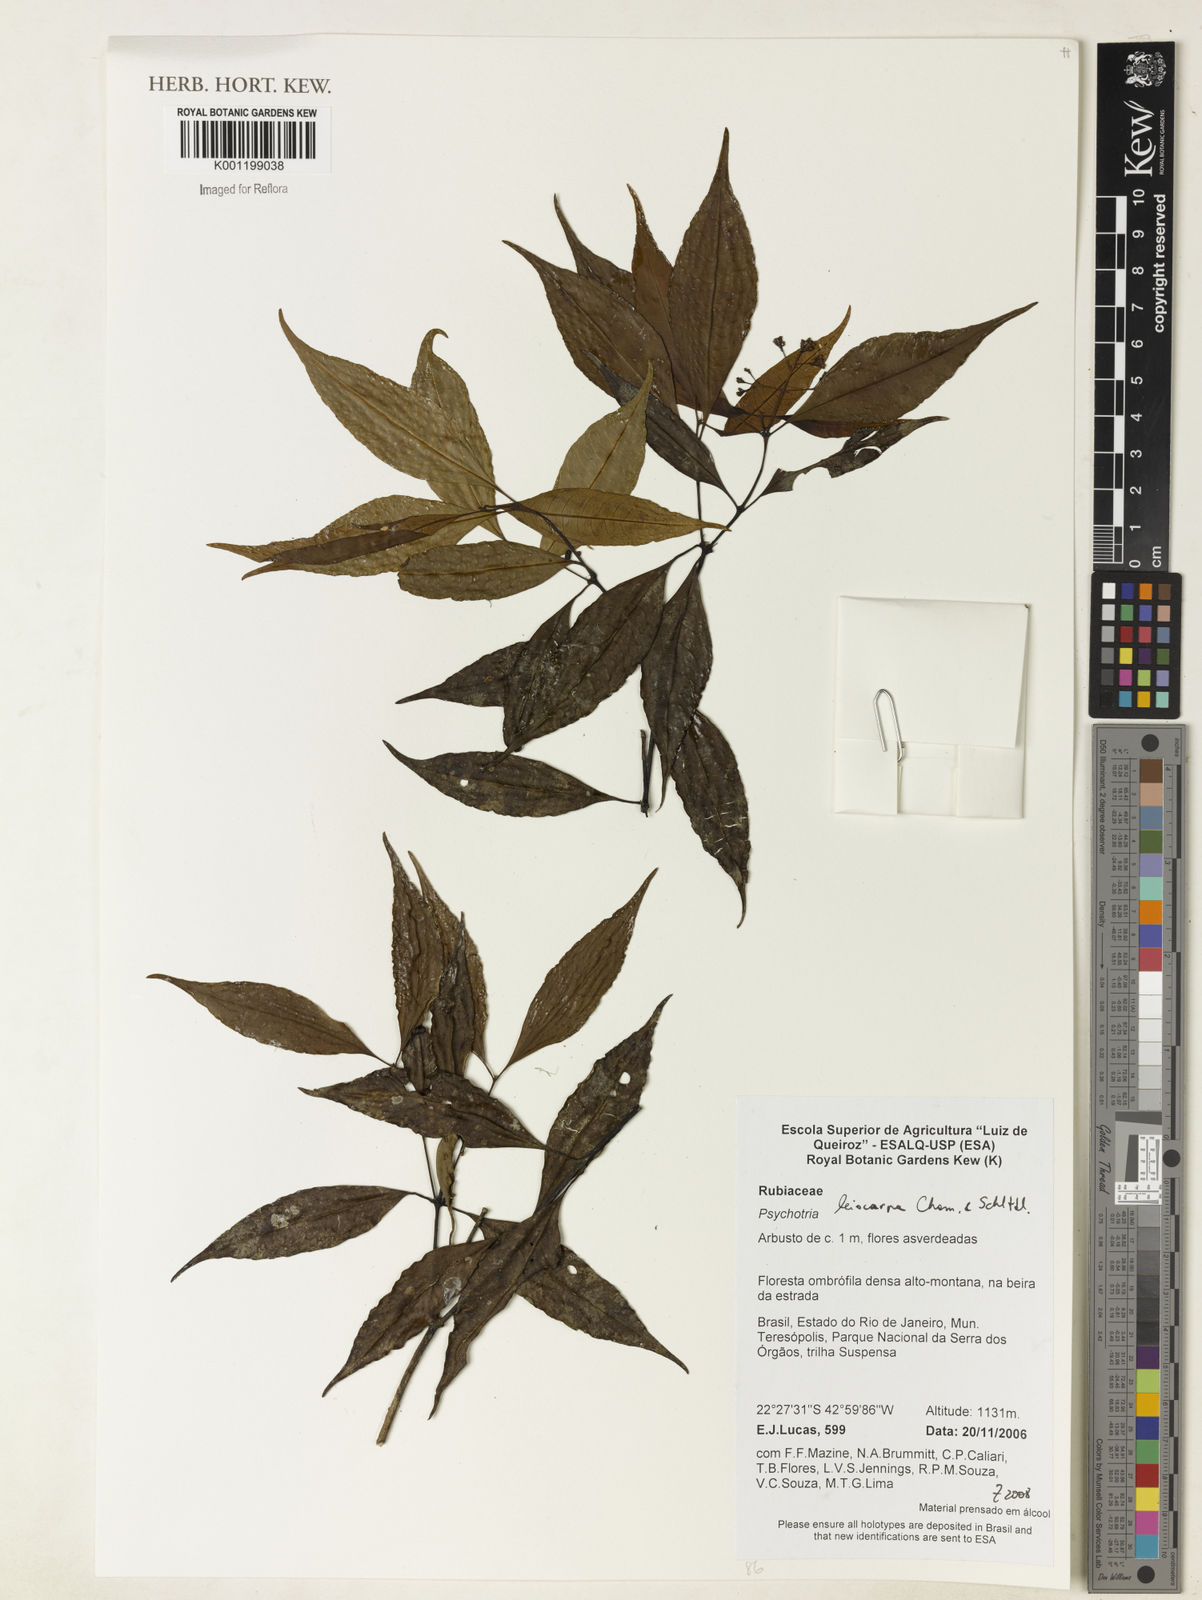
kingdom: Plantae
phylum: Tracheophyta
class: Magnoliopsida
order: Gentianales
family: Rubiaceae
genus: Psychotria
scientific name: Psychotria leiocarpa
